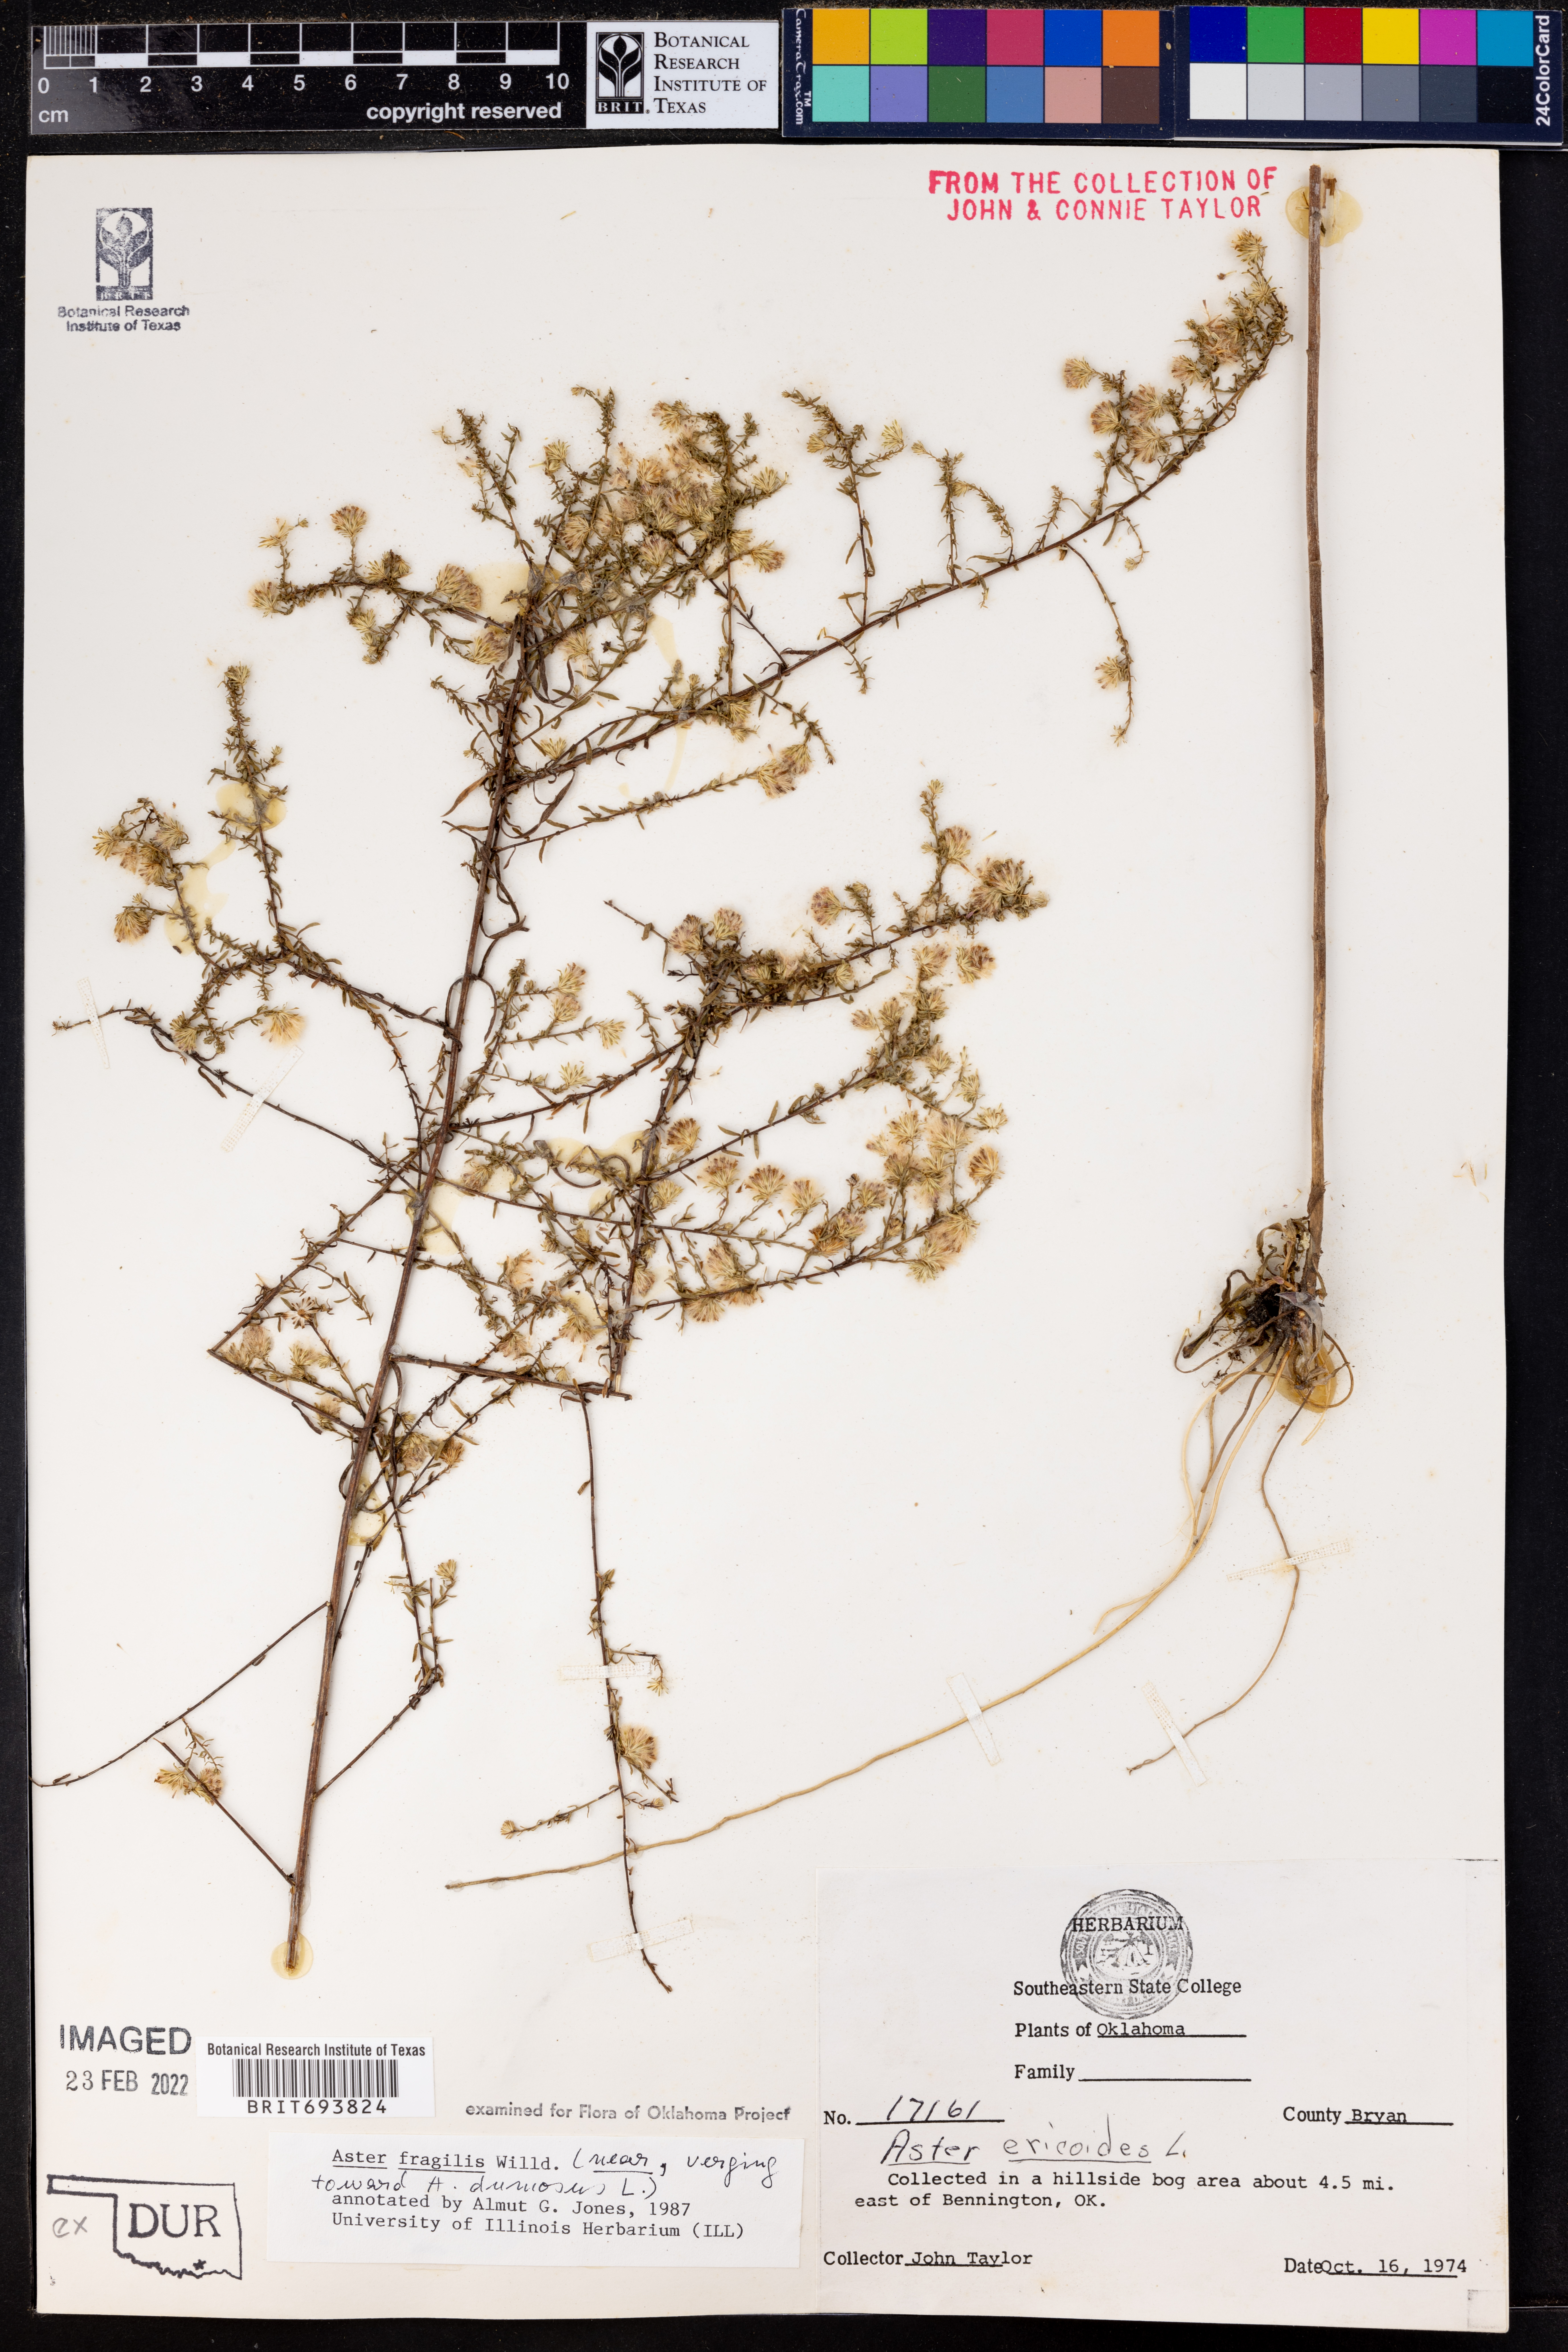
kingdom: Plantae
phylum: Tracheophyta
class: Magnoliopsida
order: Asterales
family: Asteraceae
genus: Aster
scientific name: Aster fragilis
